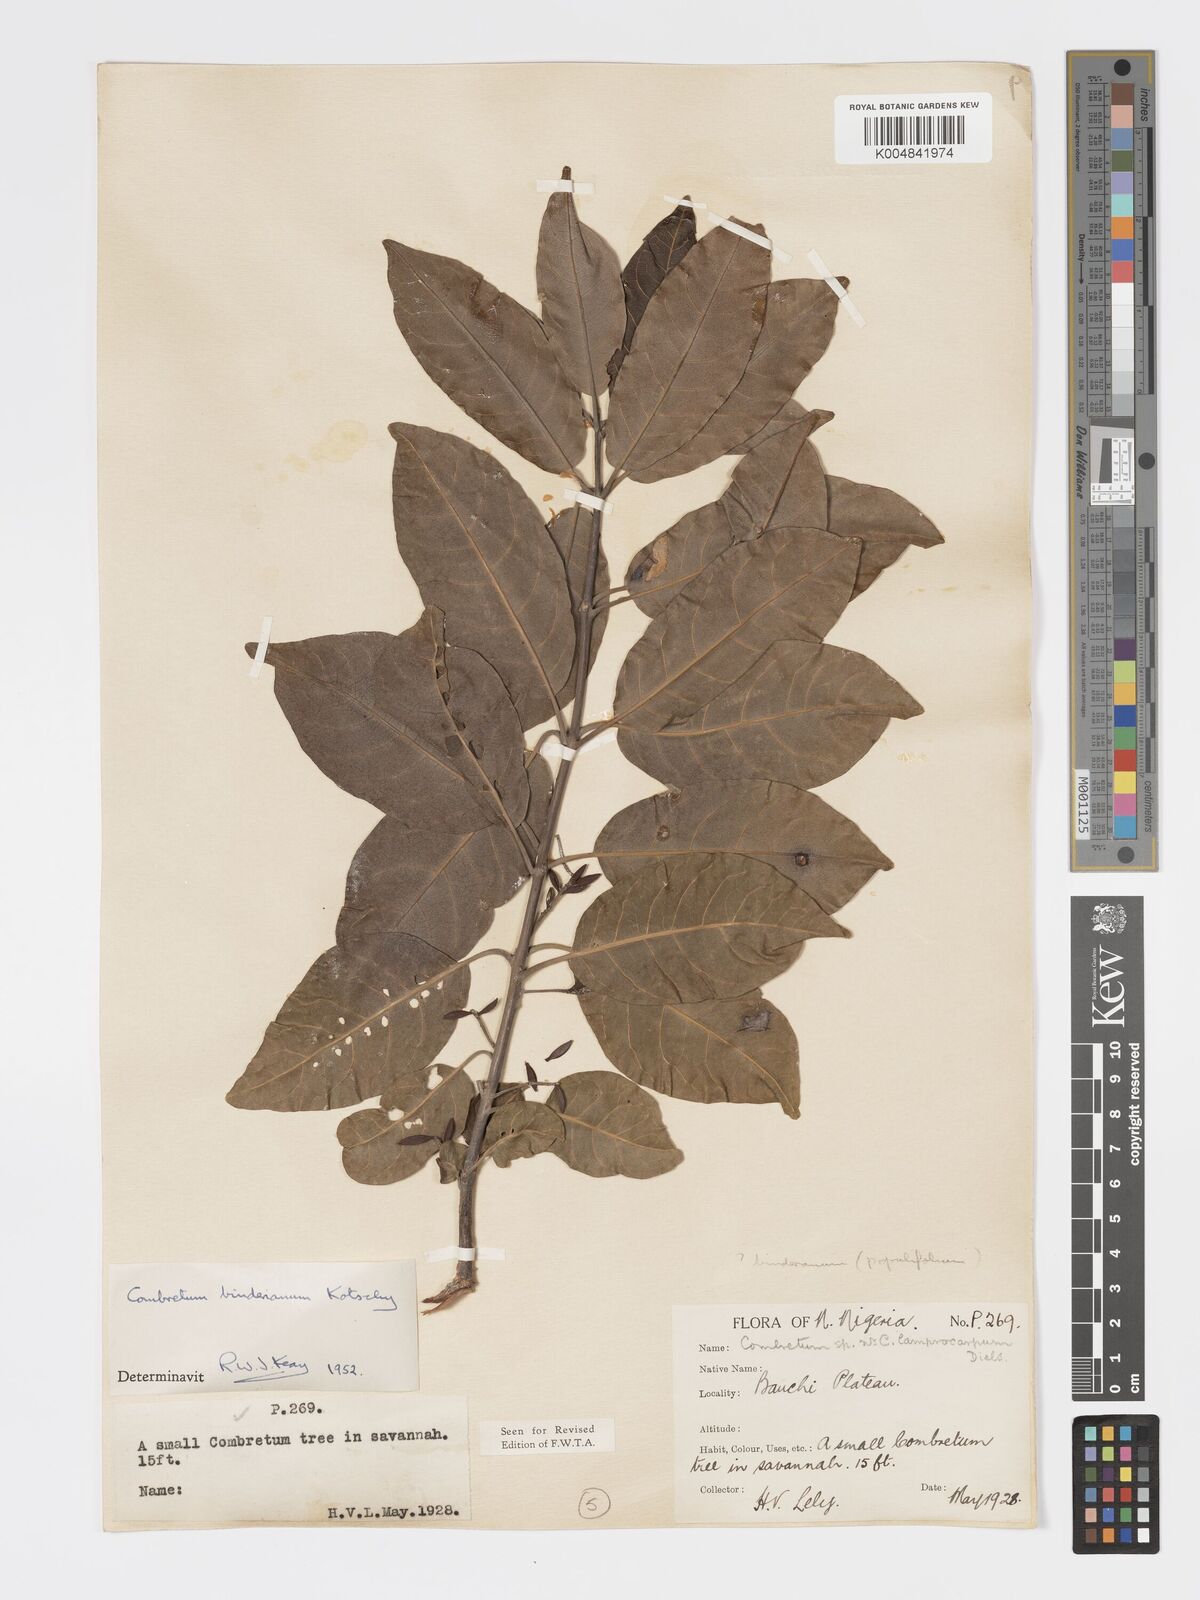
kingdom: Plantae
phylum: Tracheophyta
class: Magnoliopsida
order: Myrtales
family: Combretaceae
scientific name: Combretaceae
